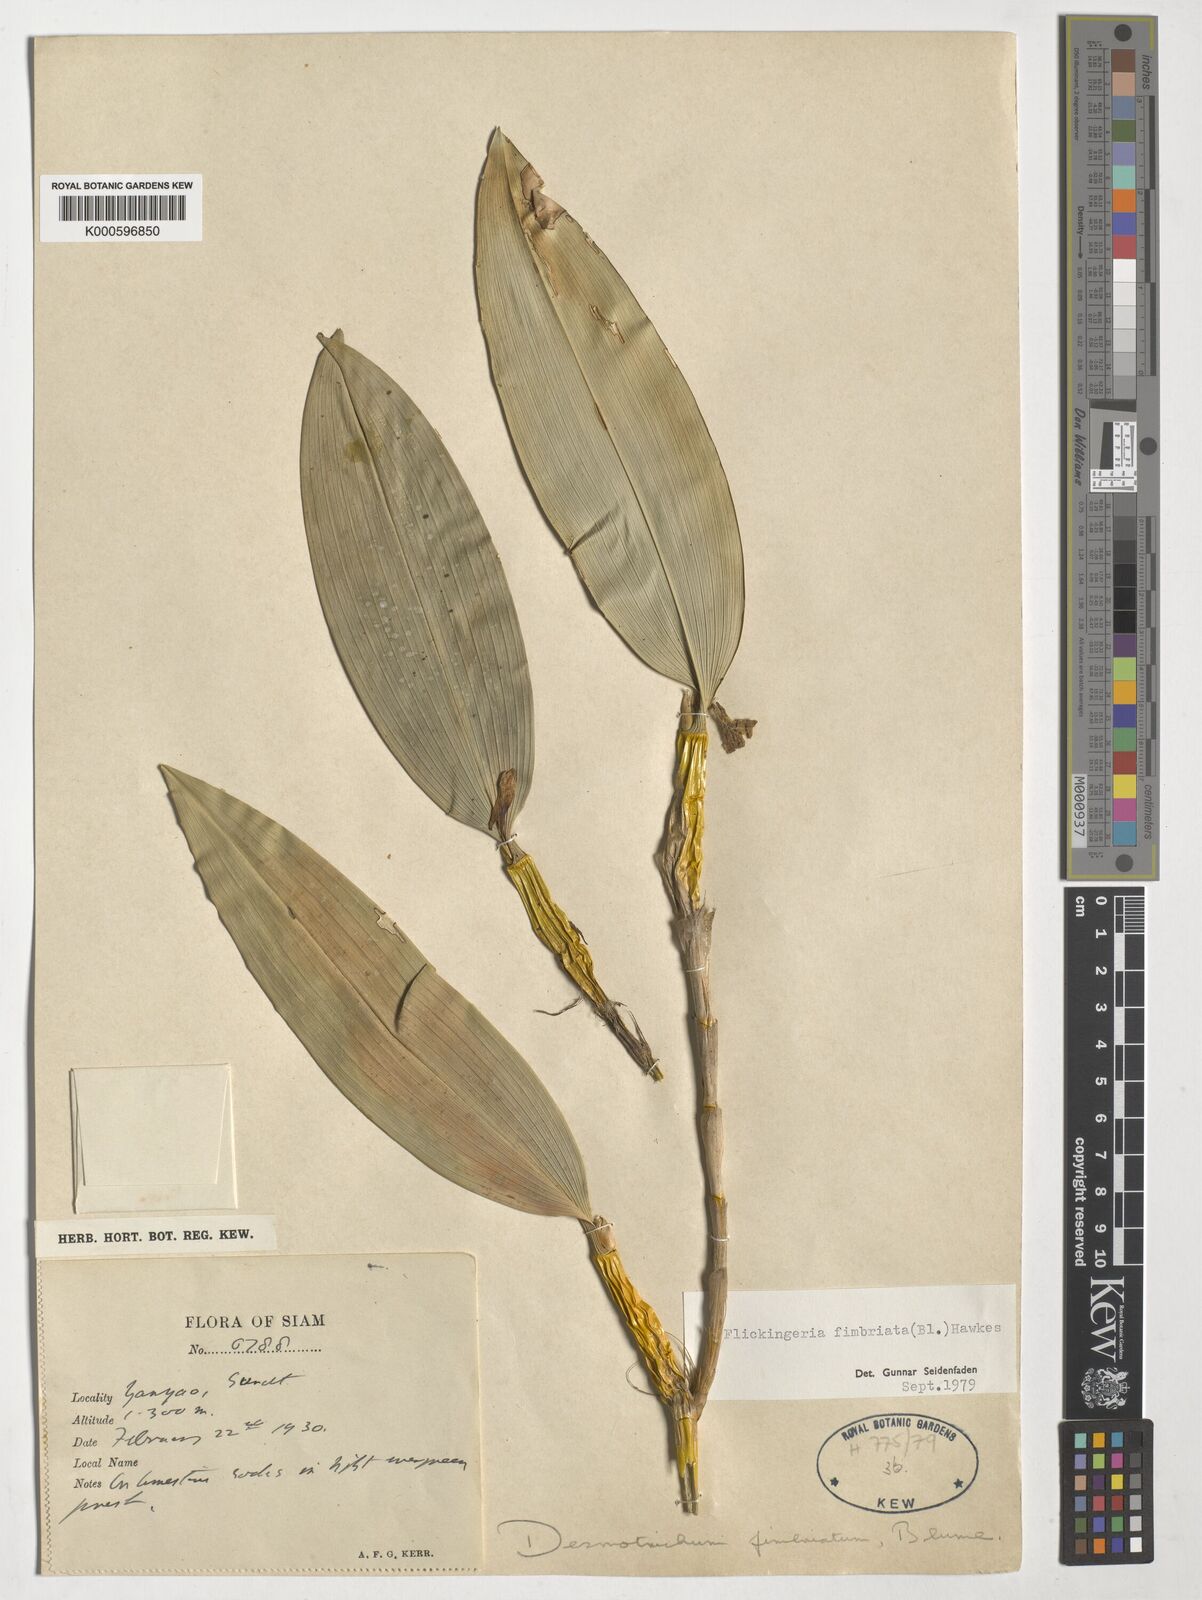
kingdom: Plantae
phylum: Tracheophyta
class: Liliopsida
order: Asparagales
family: Orchidaceae
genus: Dendrobium
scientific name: Dendrobium plicatile
